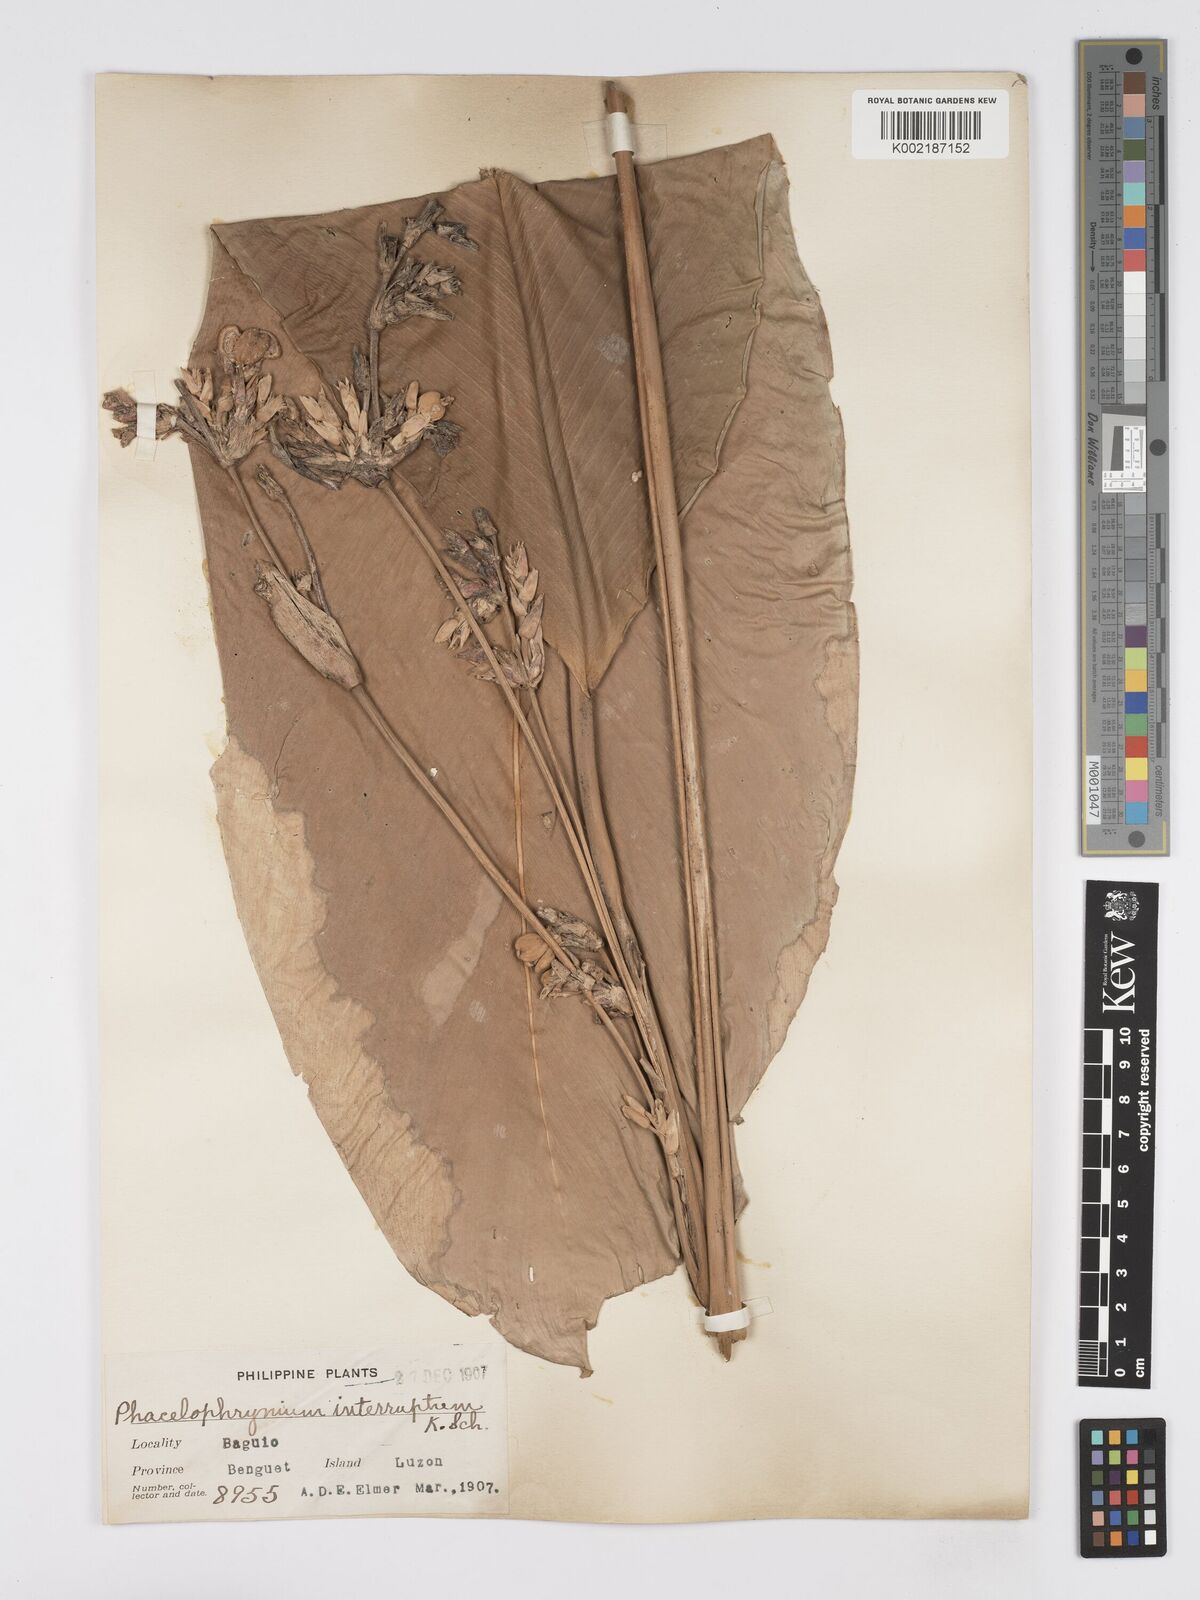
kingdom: Plantae
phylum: Tracheophyta
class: Liliopsida
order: Zingiberales
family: Marantaceae
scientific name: Marantaceae
